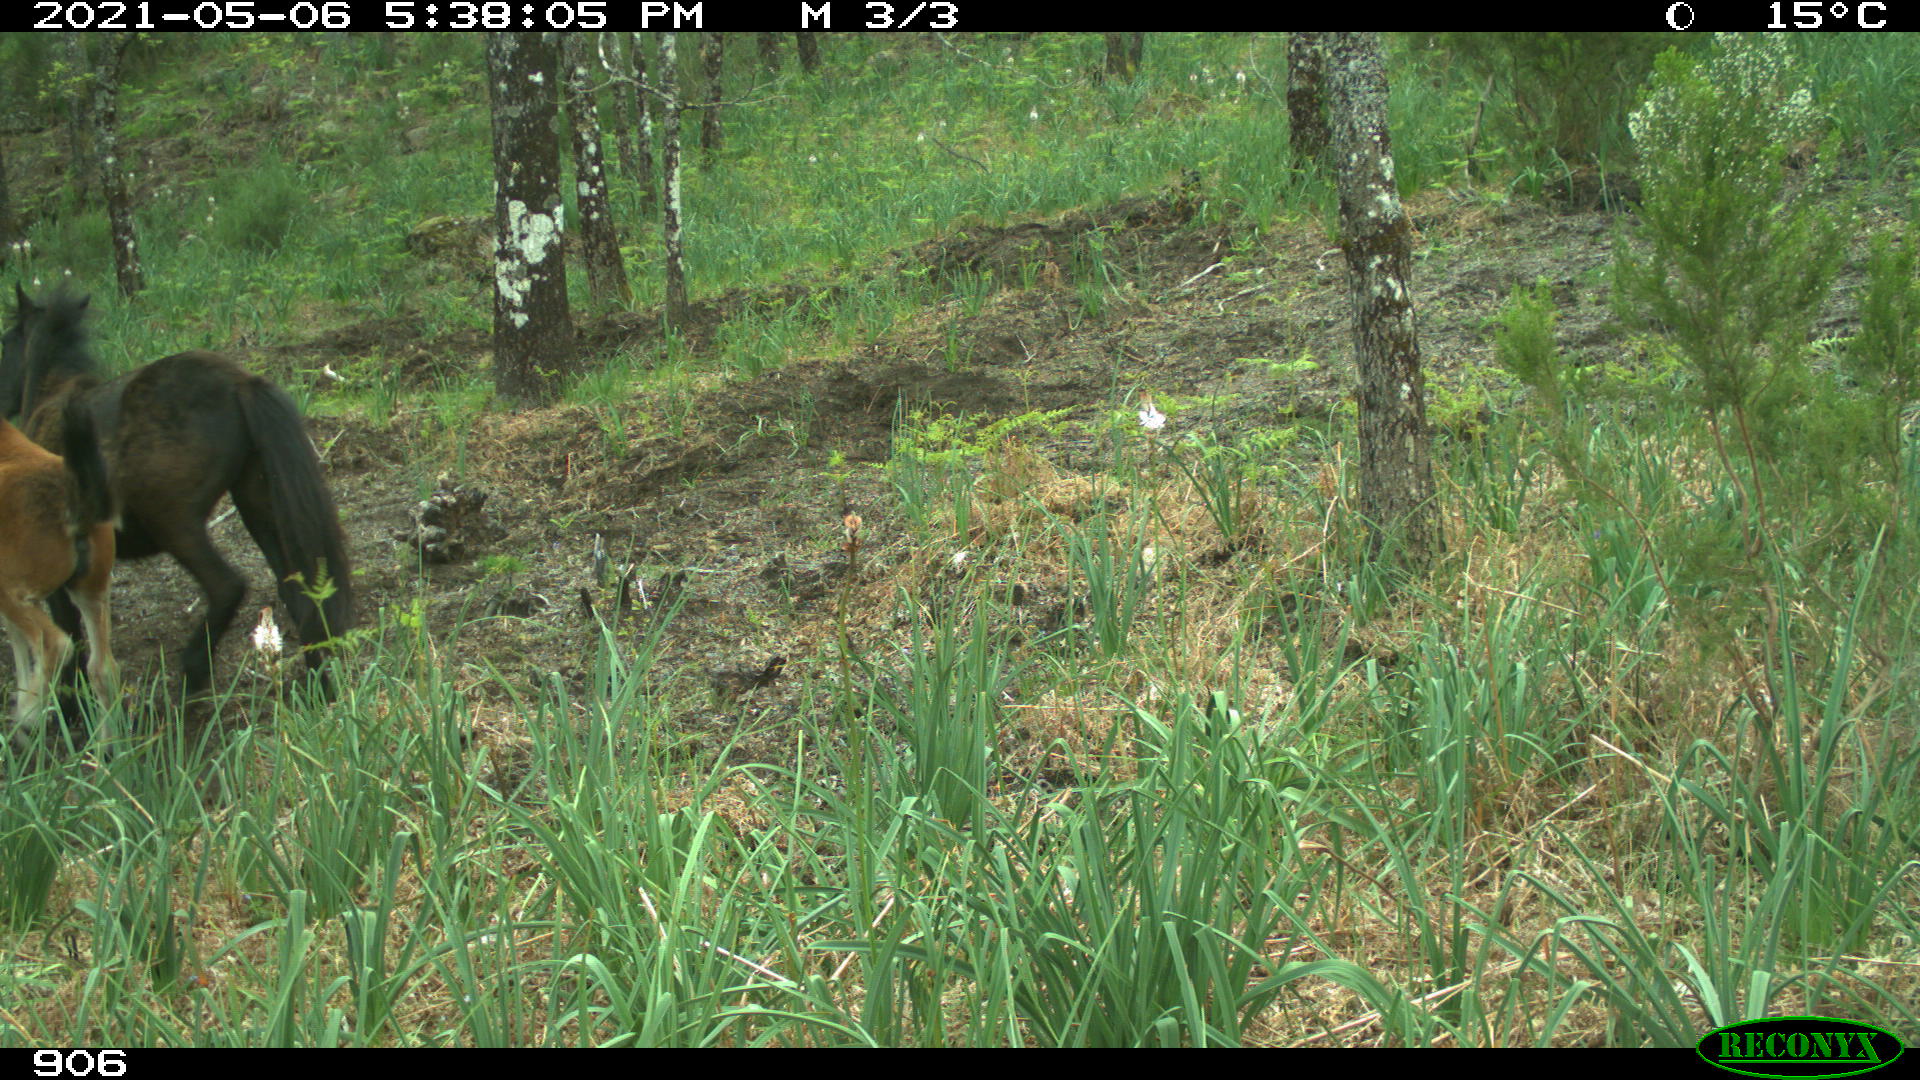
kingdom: Animalia
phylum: Chordata
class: Mammalia
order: Perissodactyla
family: Equidae
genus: Equus
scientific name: Equus caballus
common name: Horse
